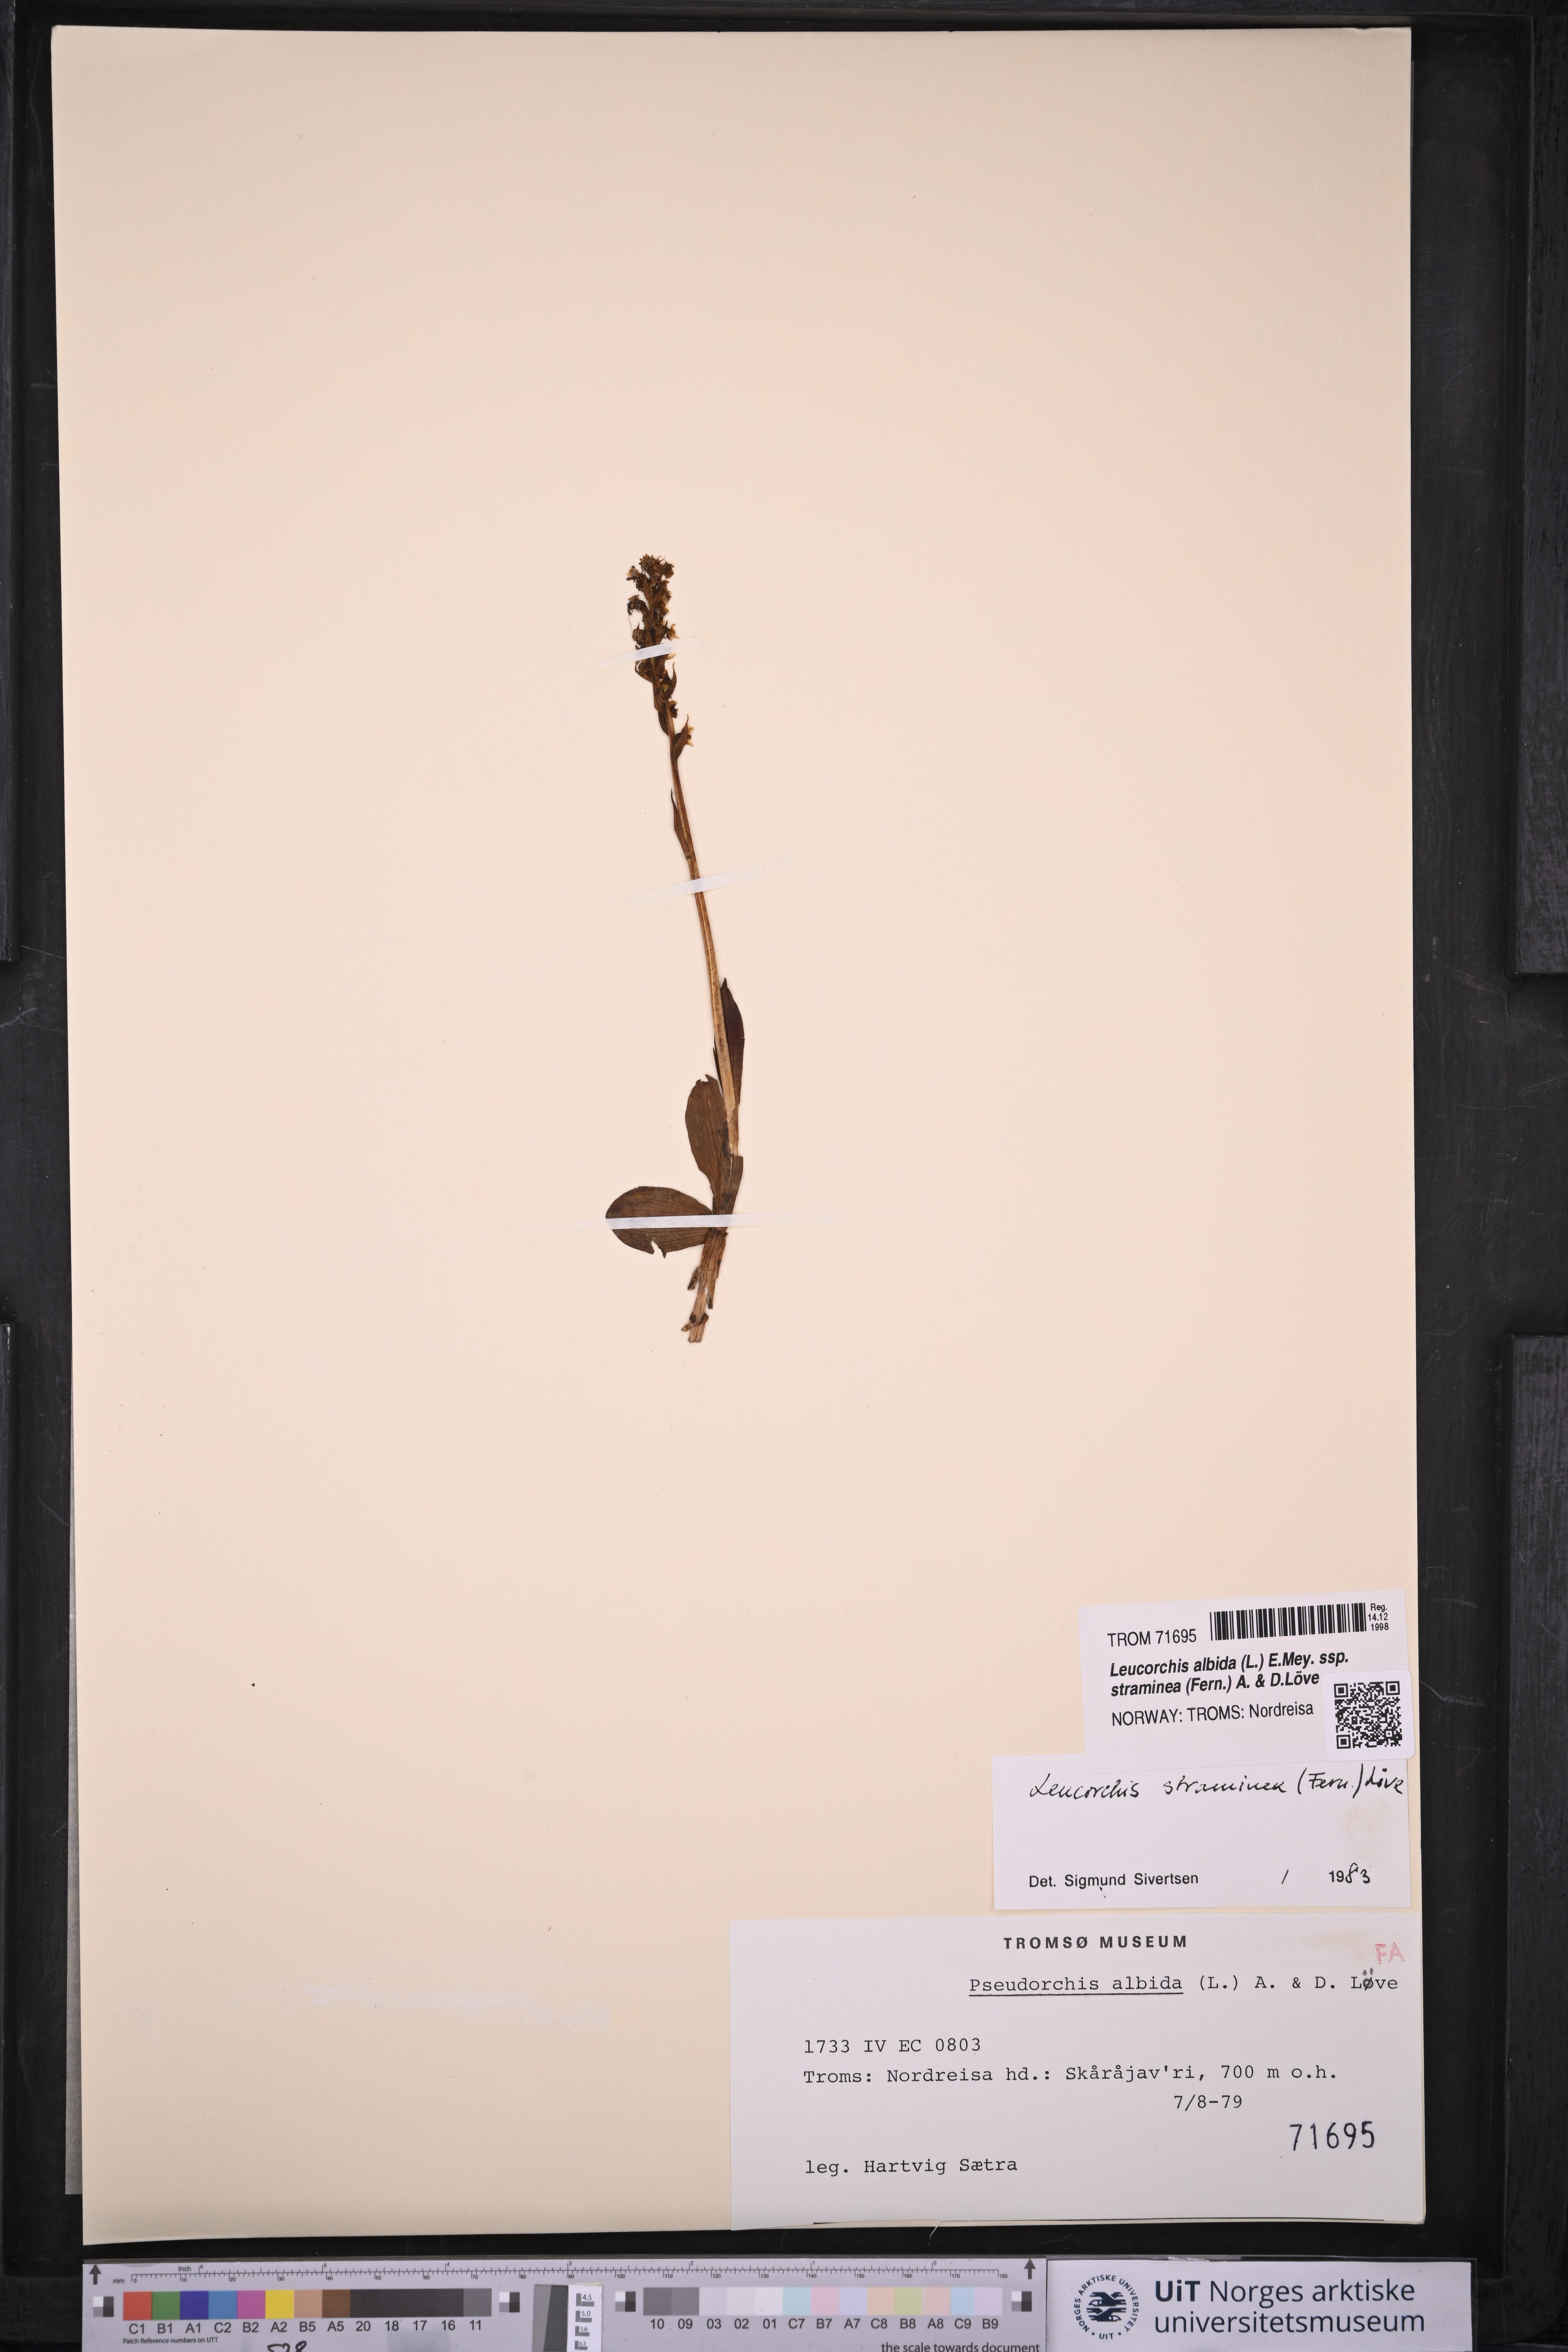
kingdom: Plantae
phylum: Tracheophyta
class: Liliopsida
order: Asparagales
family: Orchidaceae
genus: Pseudorchis
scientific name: Pseudorchis straminea
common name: Vanilla-scented bog orchid
